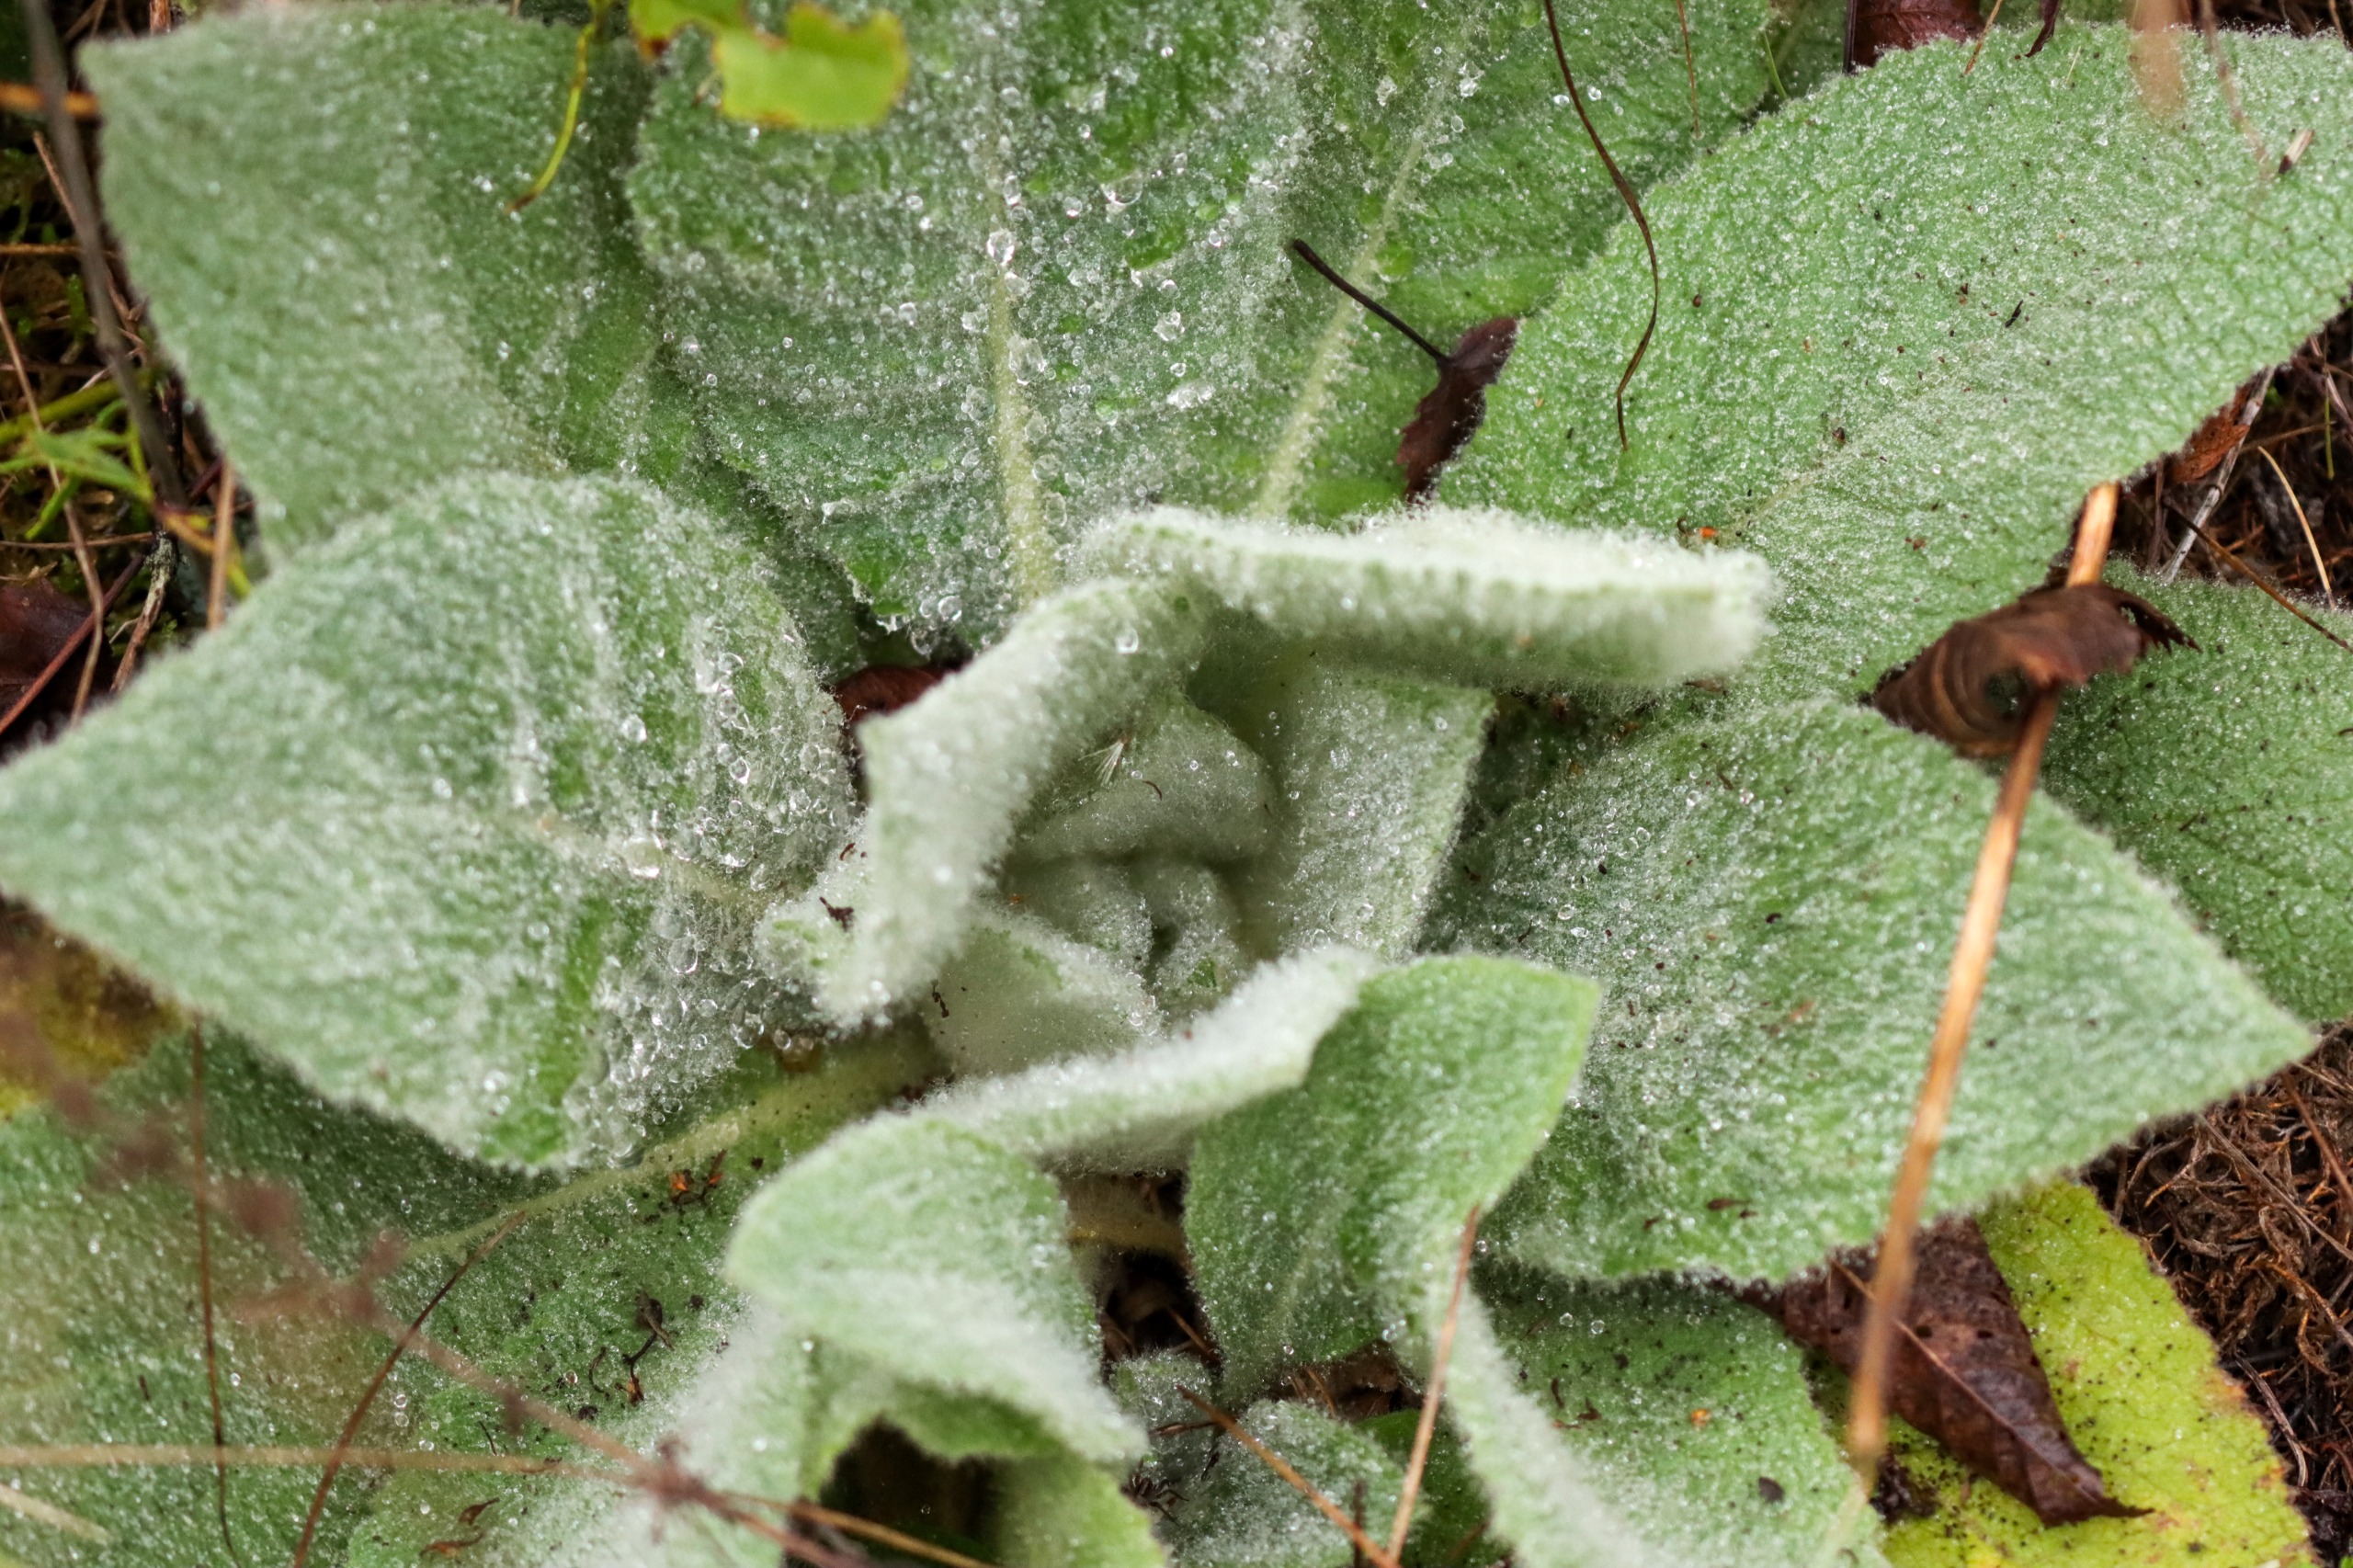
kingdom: Plantae
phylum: Tracheophyta
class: Magnoliopsida
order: Lamiales
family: Scrophulariaceae
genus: Verbascum
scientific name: Verbascum thapsus
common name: Filtbladet kongelys
